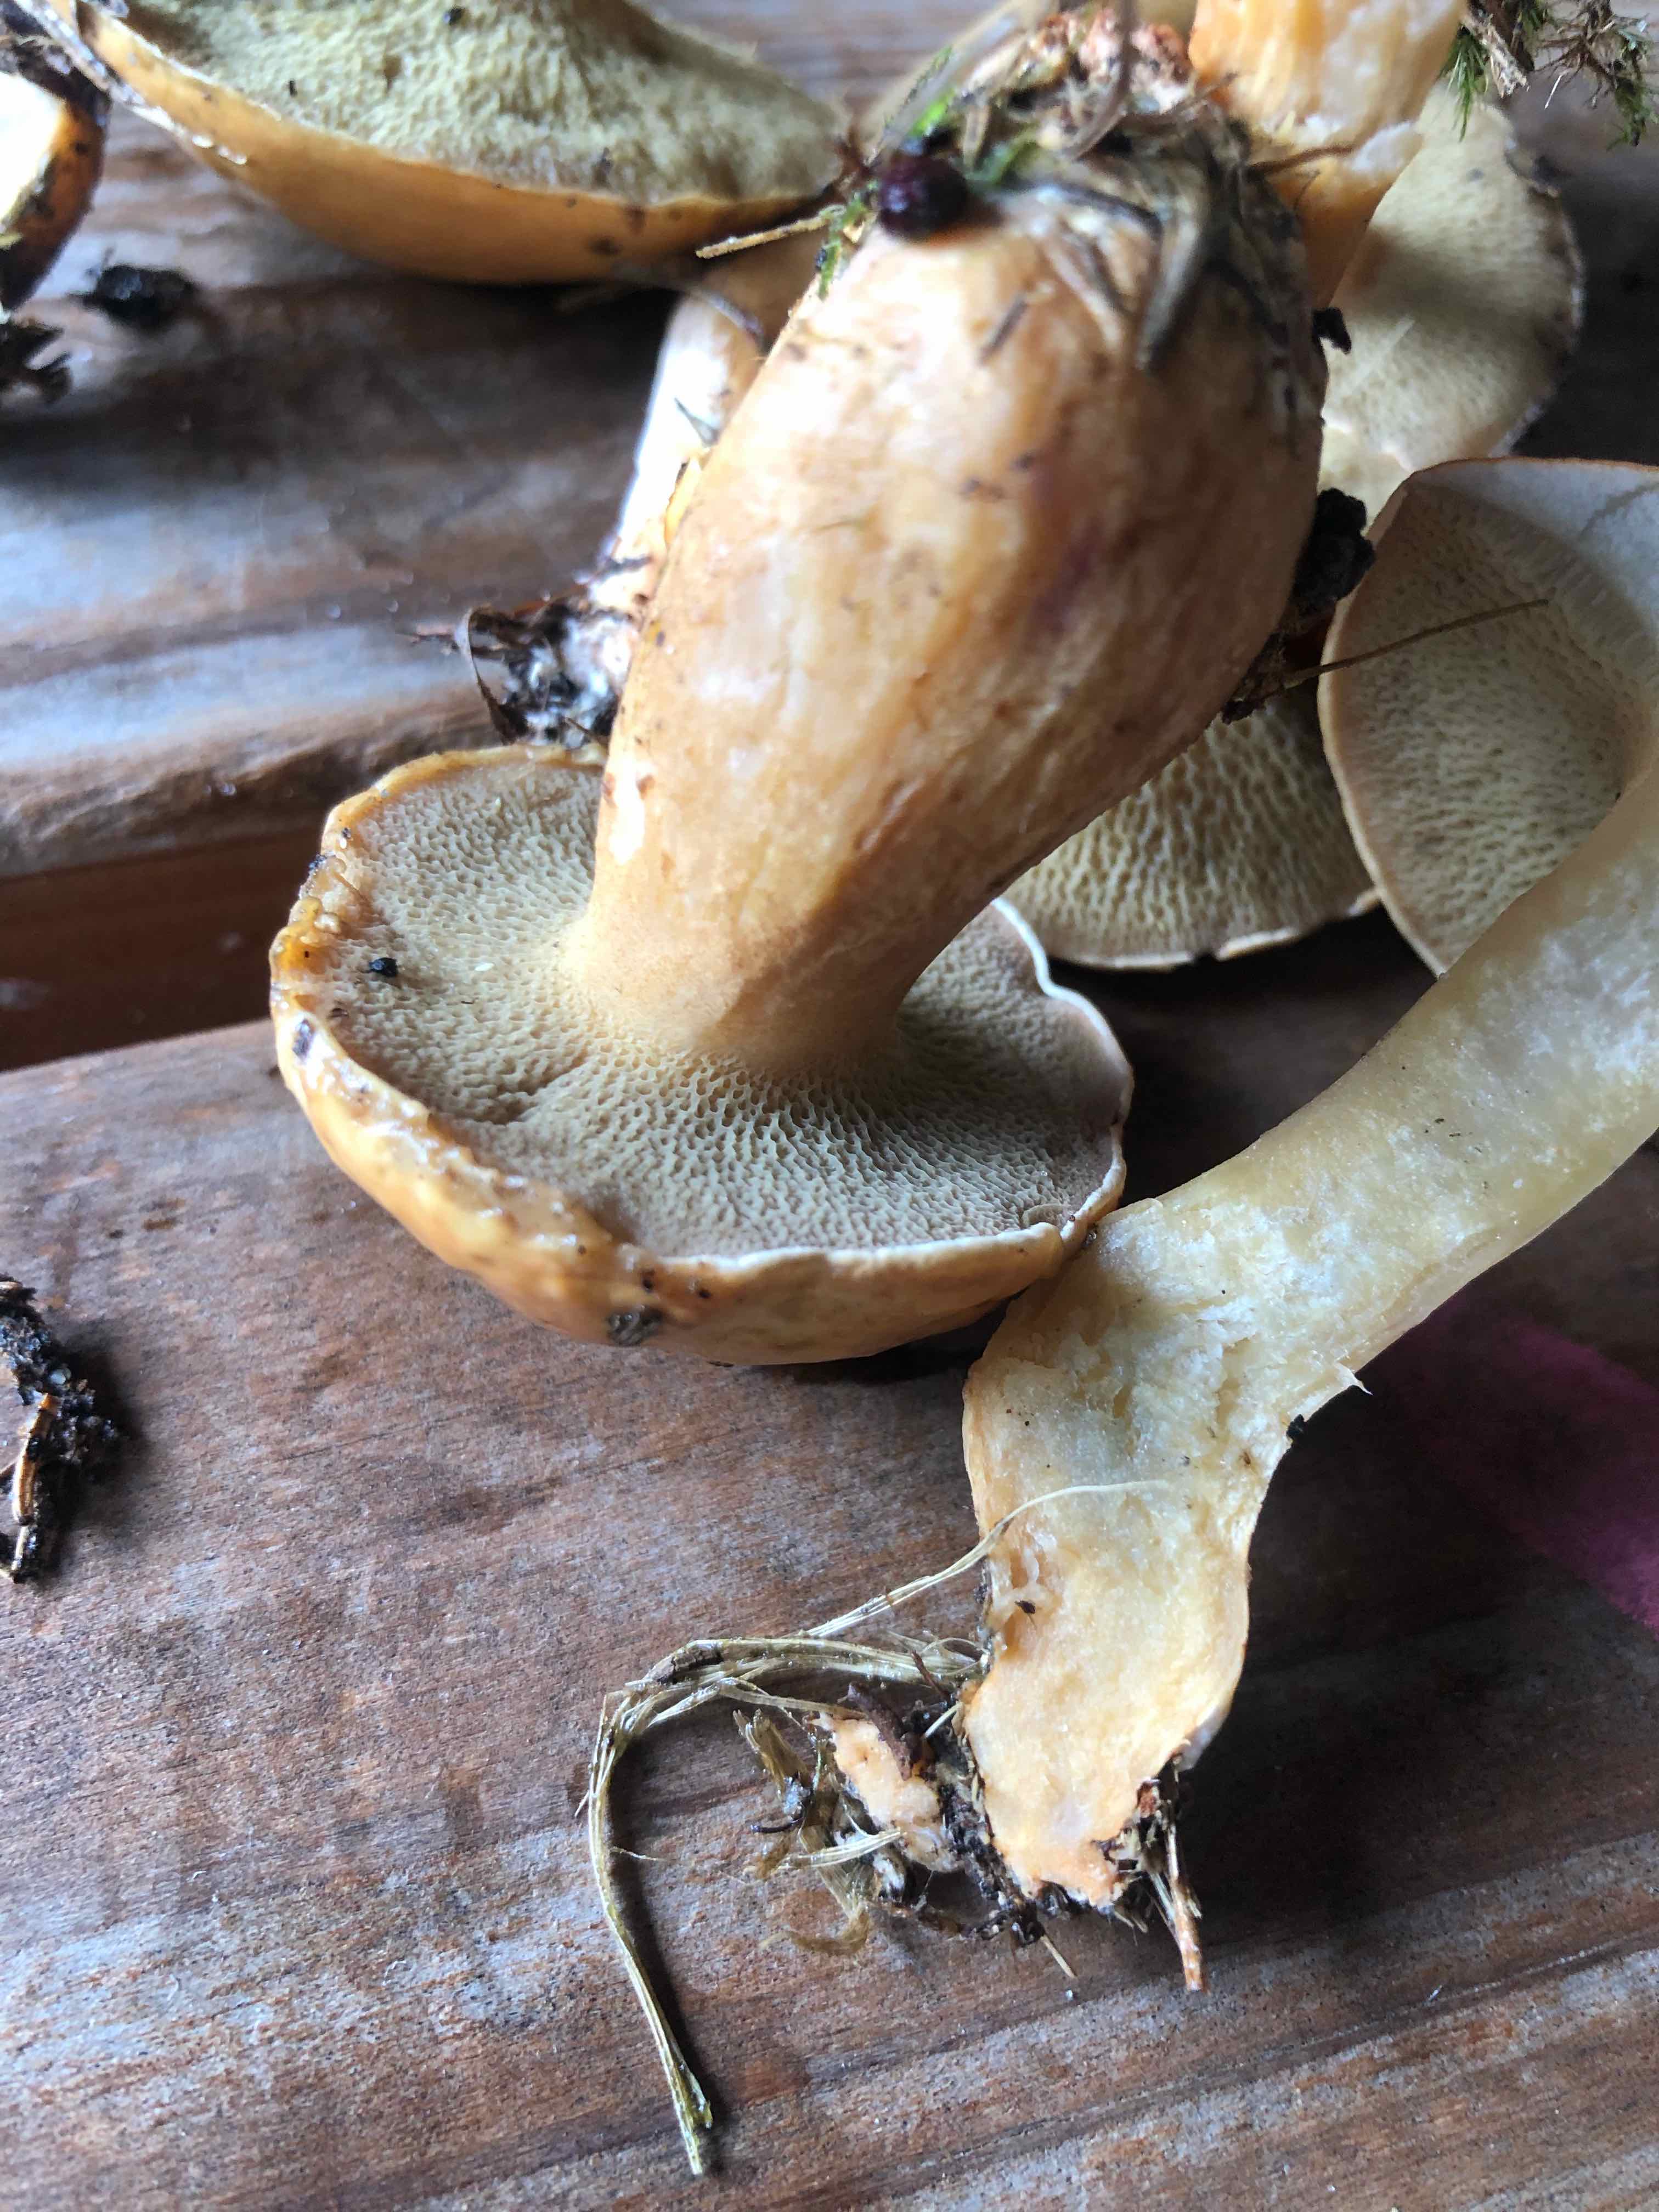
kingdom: Fungi
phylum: Basidiomycota
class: Agaricomycetes
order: Boletales
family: Suillaceae
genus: Suillus
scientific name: Suillus bovinus
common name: grovporet slimrørhat
